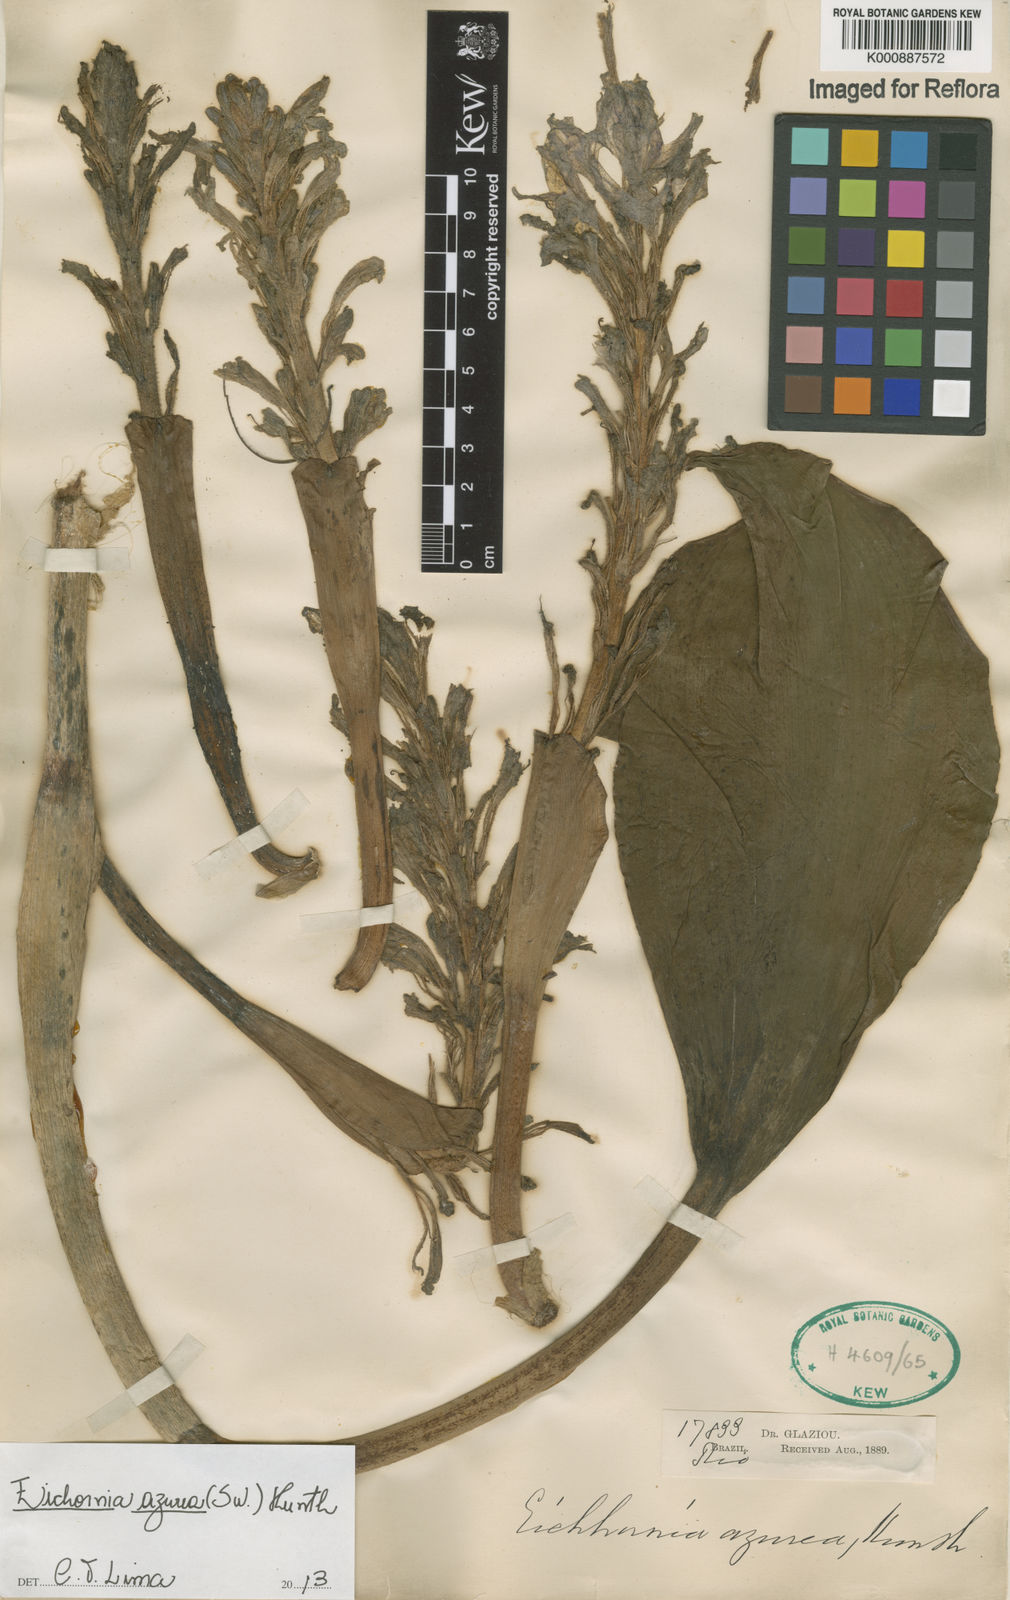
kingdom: Plantae
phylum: Tracheophyta
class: Liliopsida
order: Commelinales
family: Pontederiaceae
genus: Pontederia
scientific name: Pontederia azurea
